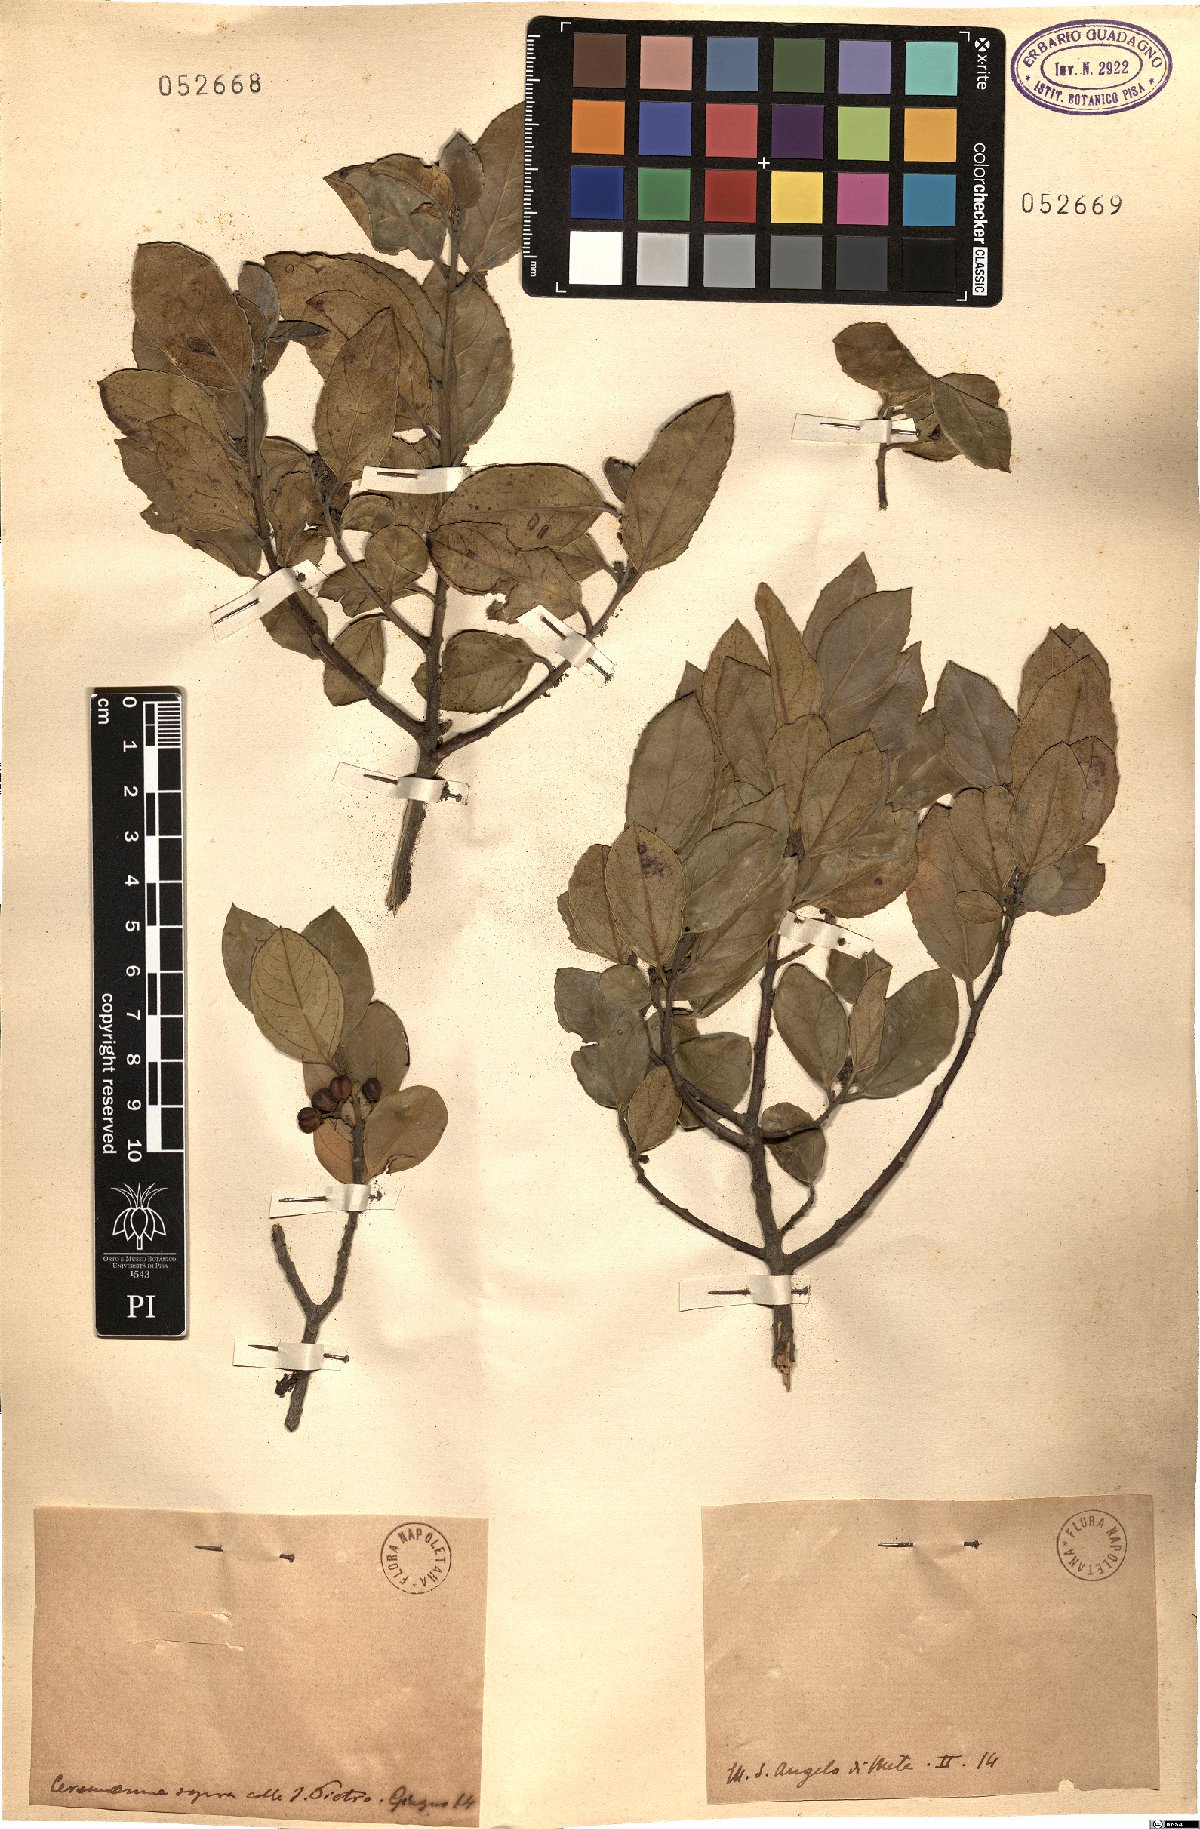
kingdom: Plantae
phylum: Tracheophyta
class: Magnoliopsida
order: Rosales
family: Rhamnaceae
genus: Rhamnus
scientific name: Rhamnus
